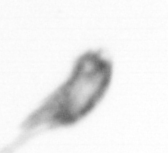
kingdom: Animalia
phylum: Arthropoda
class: Copepoda
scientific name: Copepoda
